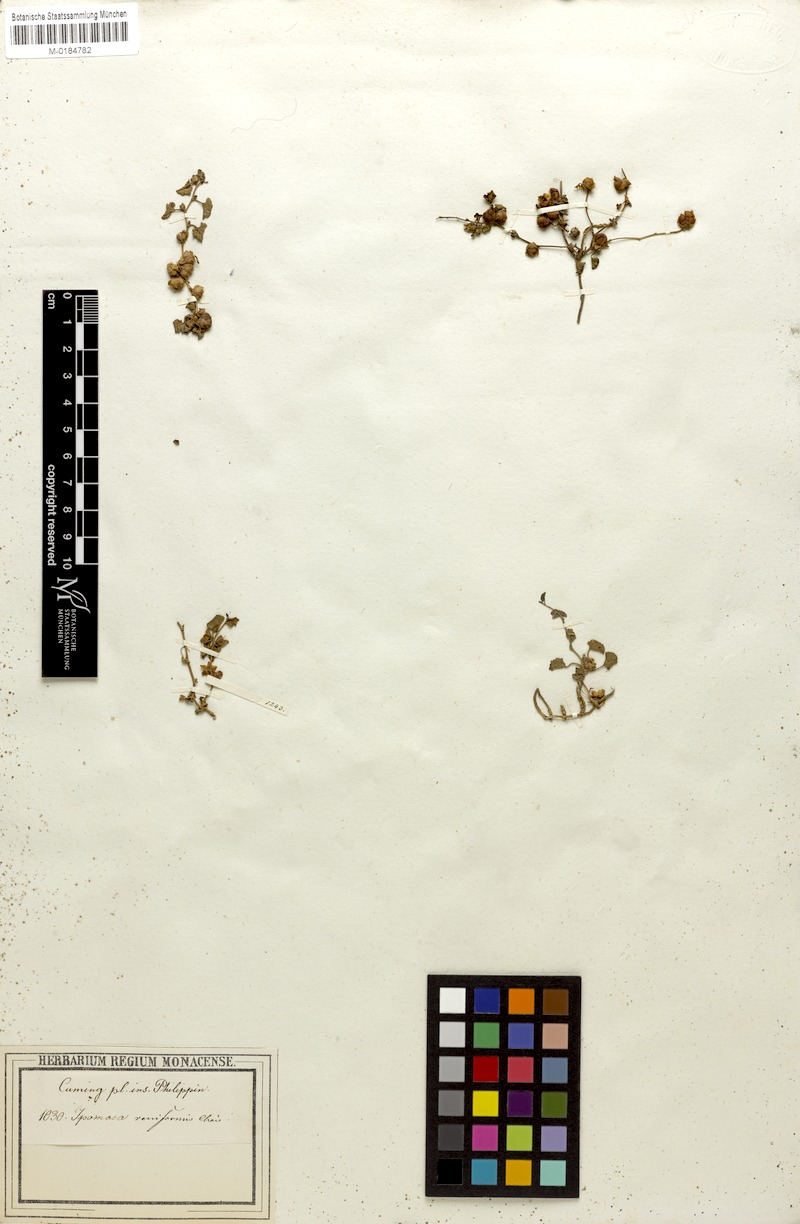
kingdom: Plantae
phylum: Tracheophyta
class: Magnoliopsida
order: Solanales
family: Convolvulaceae
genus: Merremia
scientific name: Merremia emarginata
